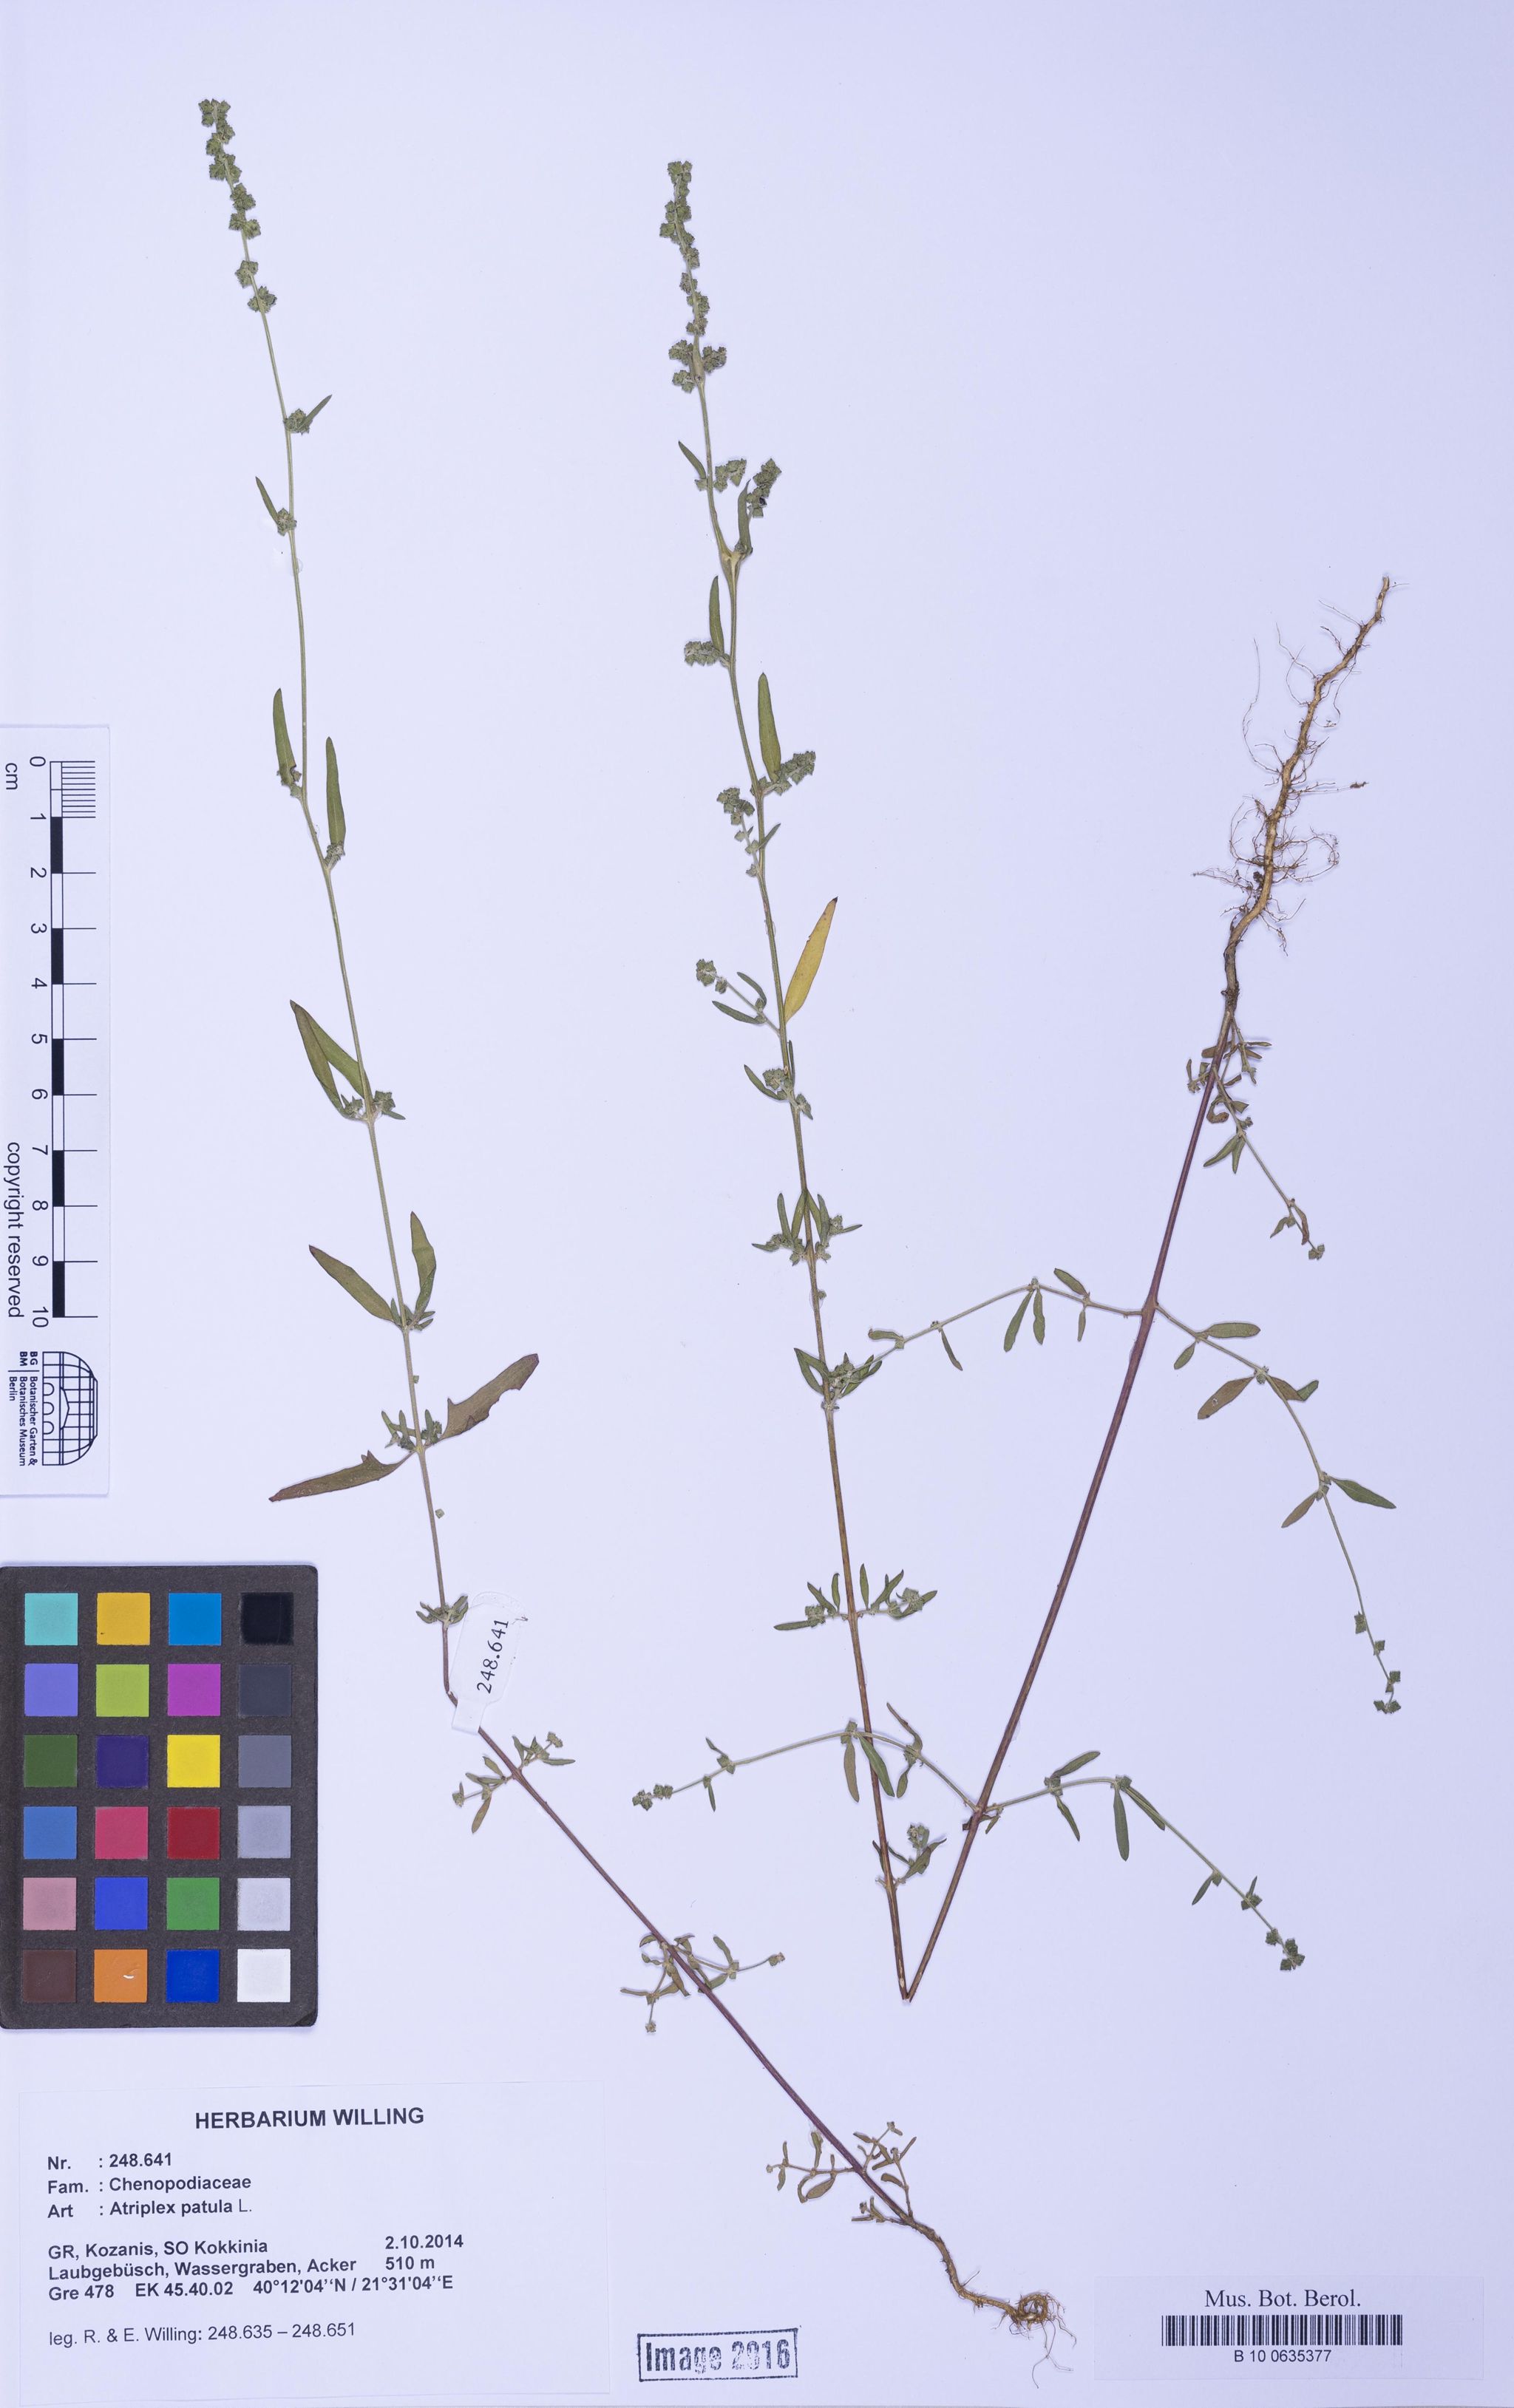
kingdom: Plantae
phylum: Tracheophyta
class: Magnoliopsida
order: Caryophyllales
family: Amaranthaceae
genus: Atriplex
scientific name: Atriplex patula
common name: Common orache
